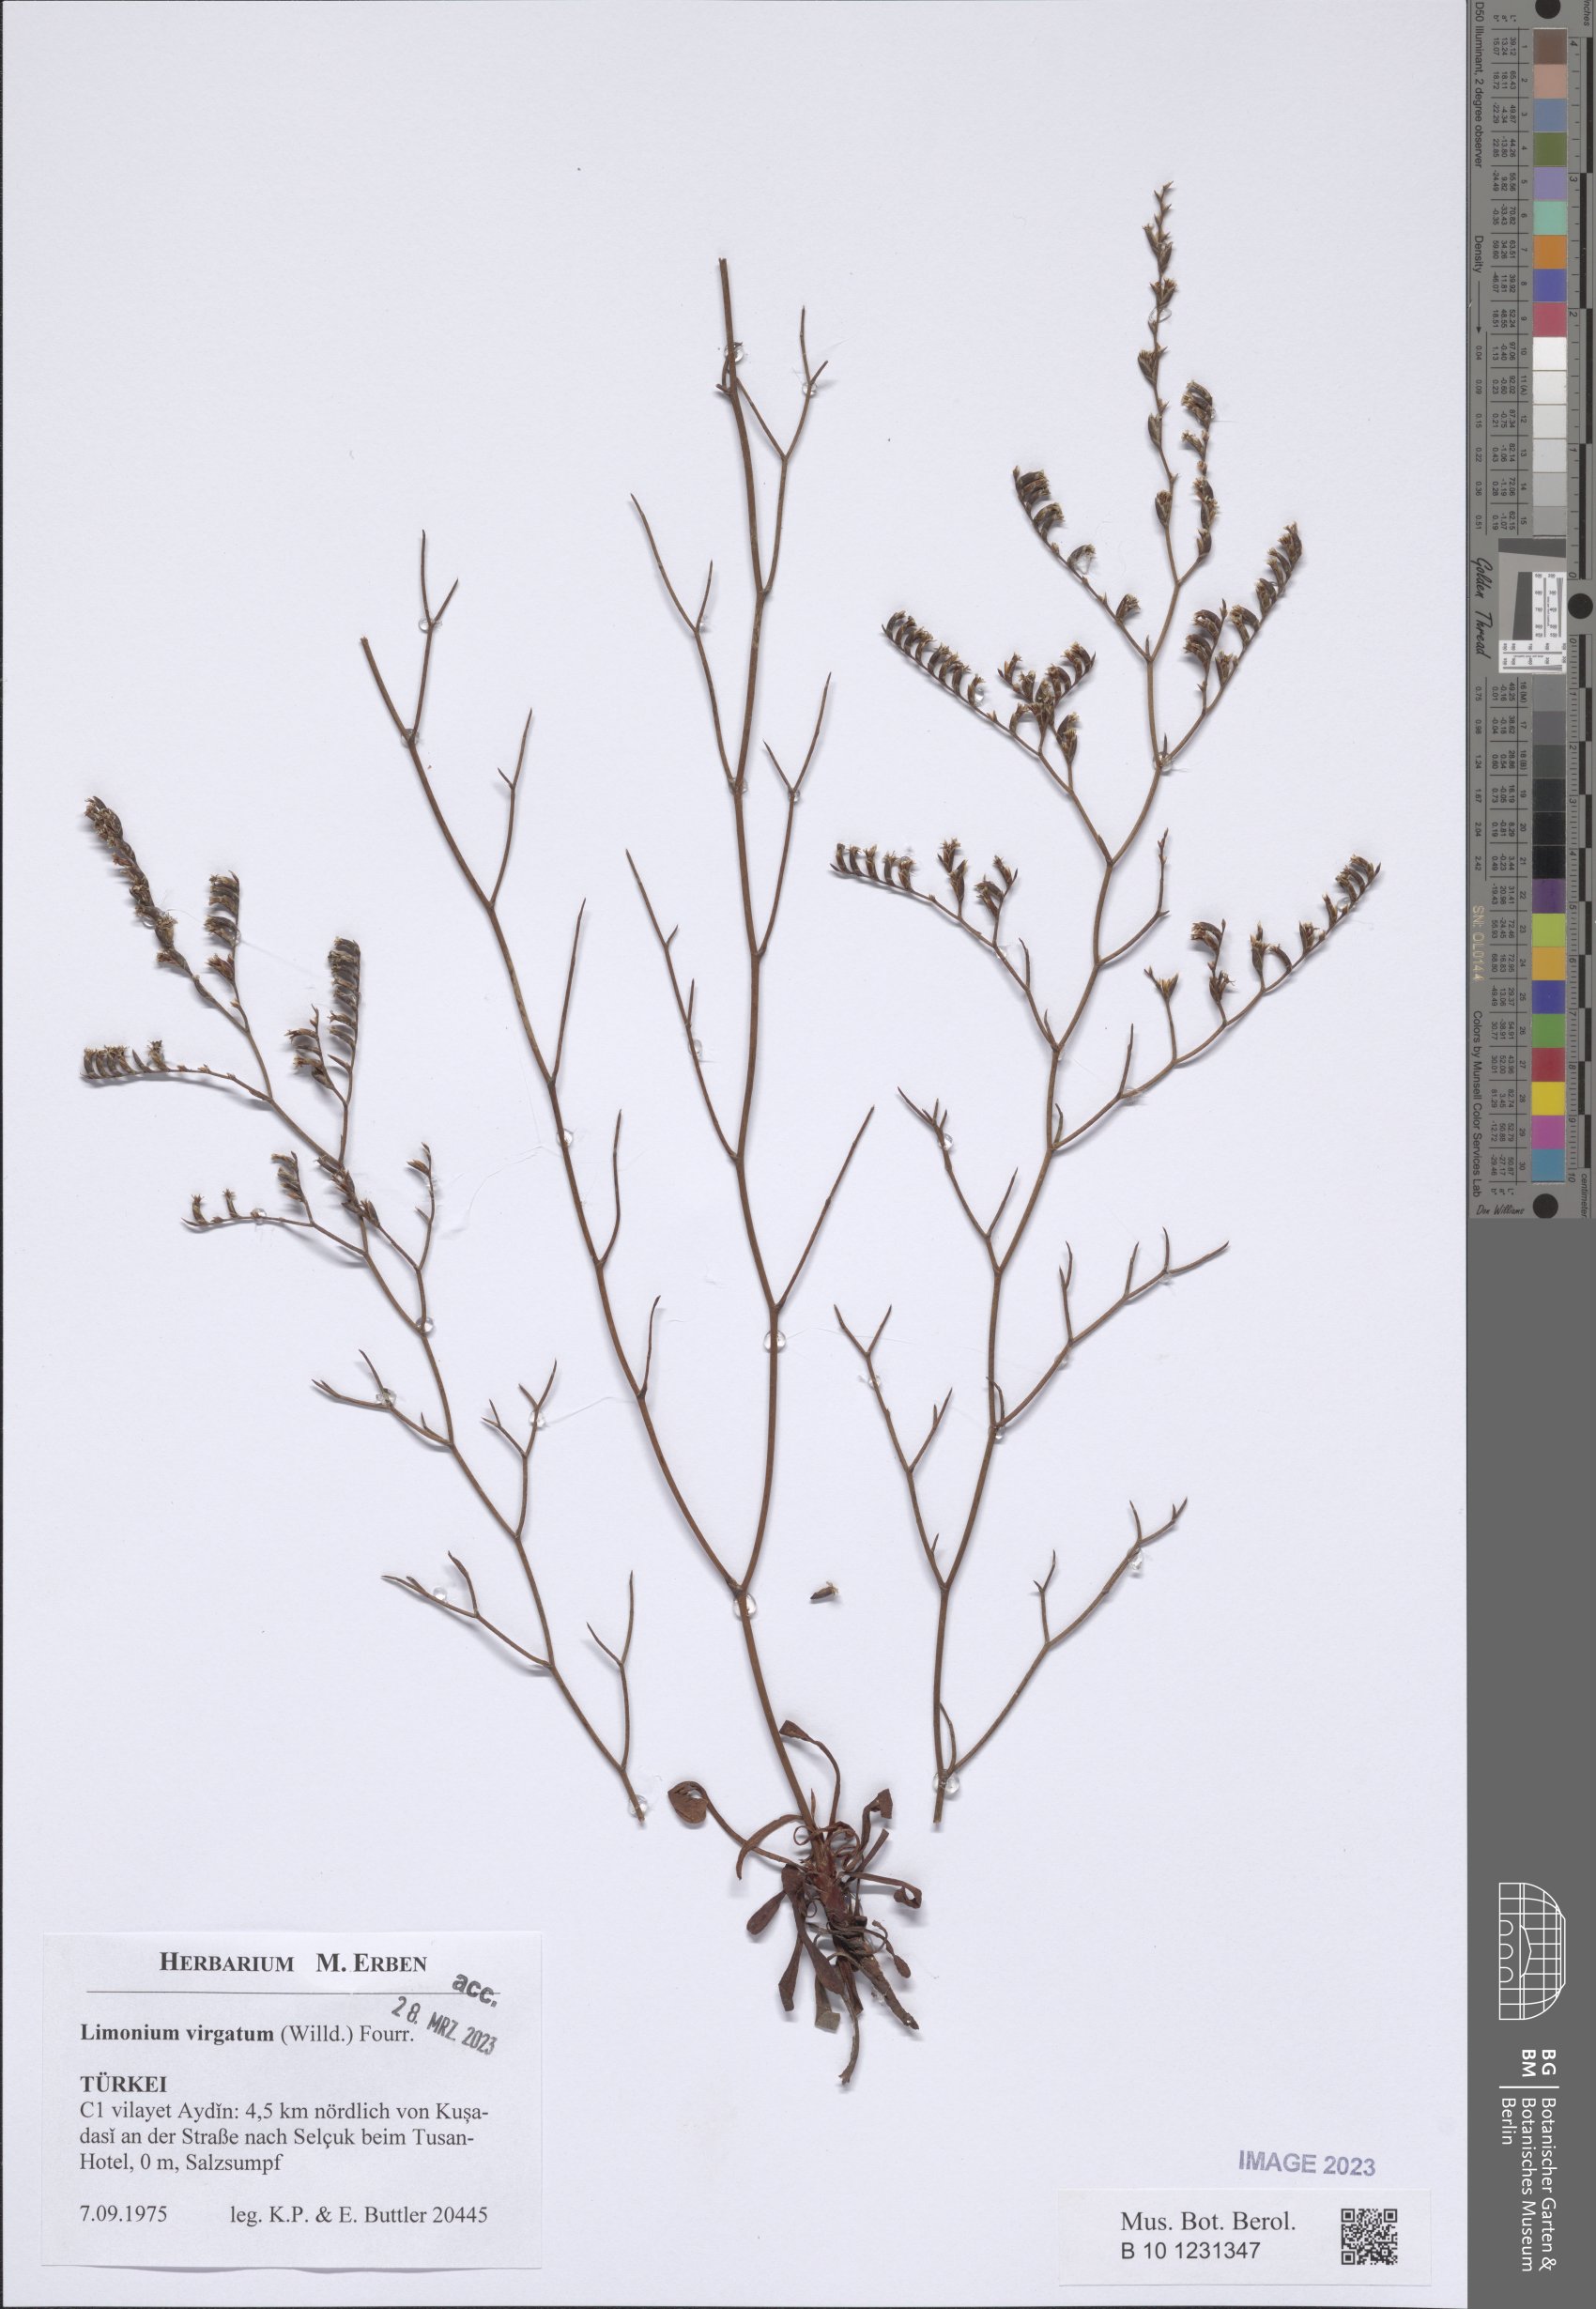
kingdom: Plantae
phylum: Tracheophyta
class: Magnoliopsida
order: Caryophyllales
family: Plumbaginaceae
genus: Limonium
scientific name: Limonium virgatum
